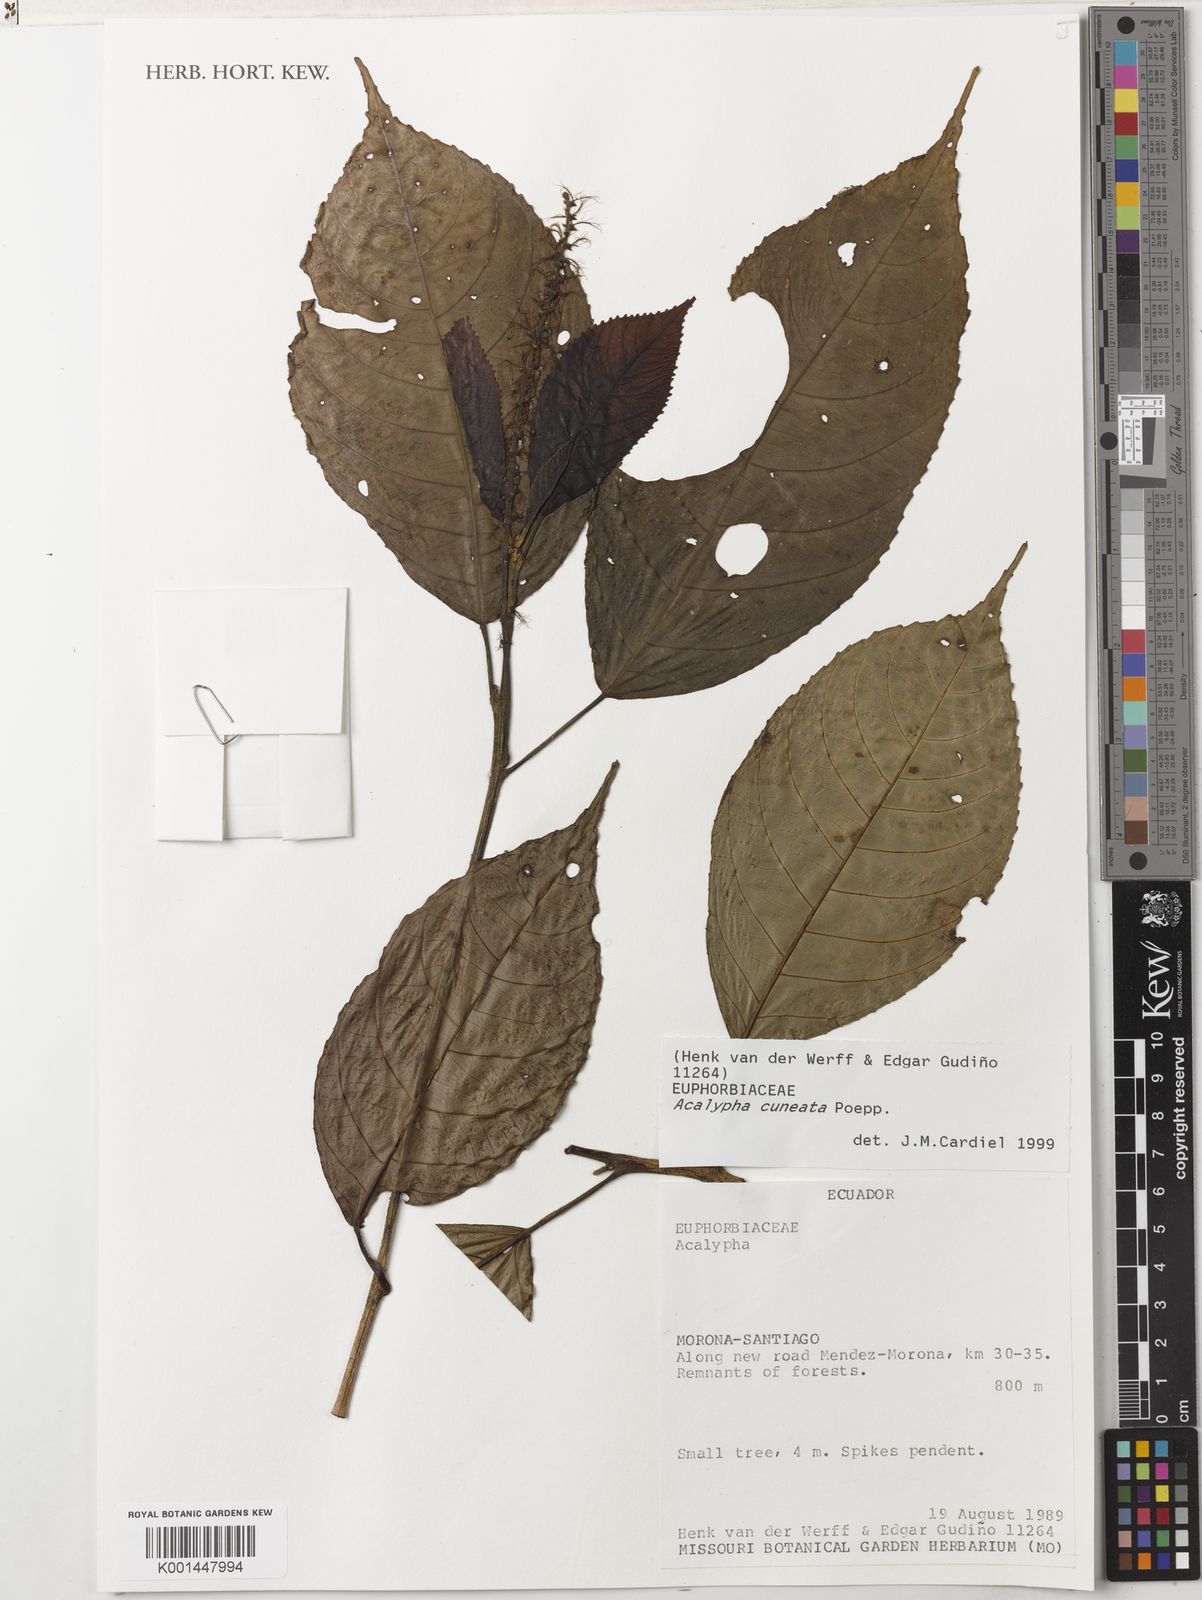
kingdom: Plantae
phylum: Tracheophyta
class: Magnoliopsida
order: Malpighiales
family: Euphorbiaceae
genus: Acalypha
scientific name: Acalypha cuneata
